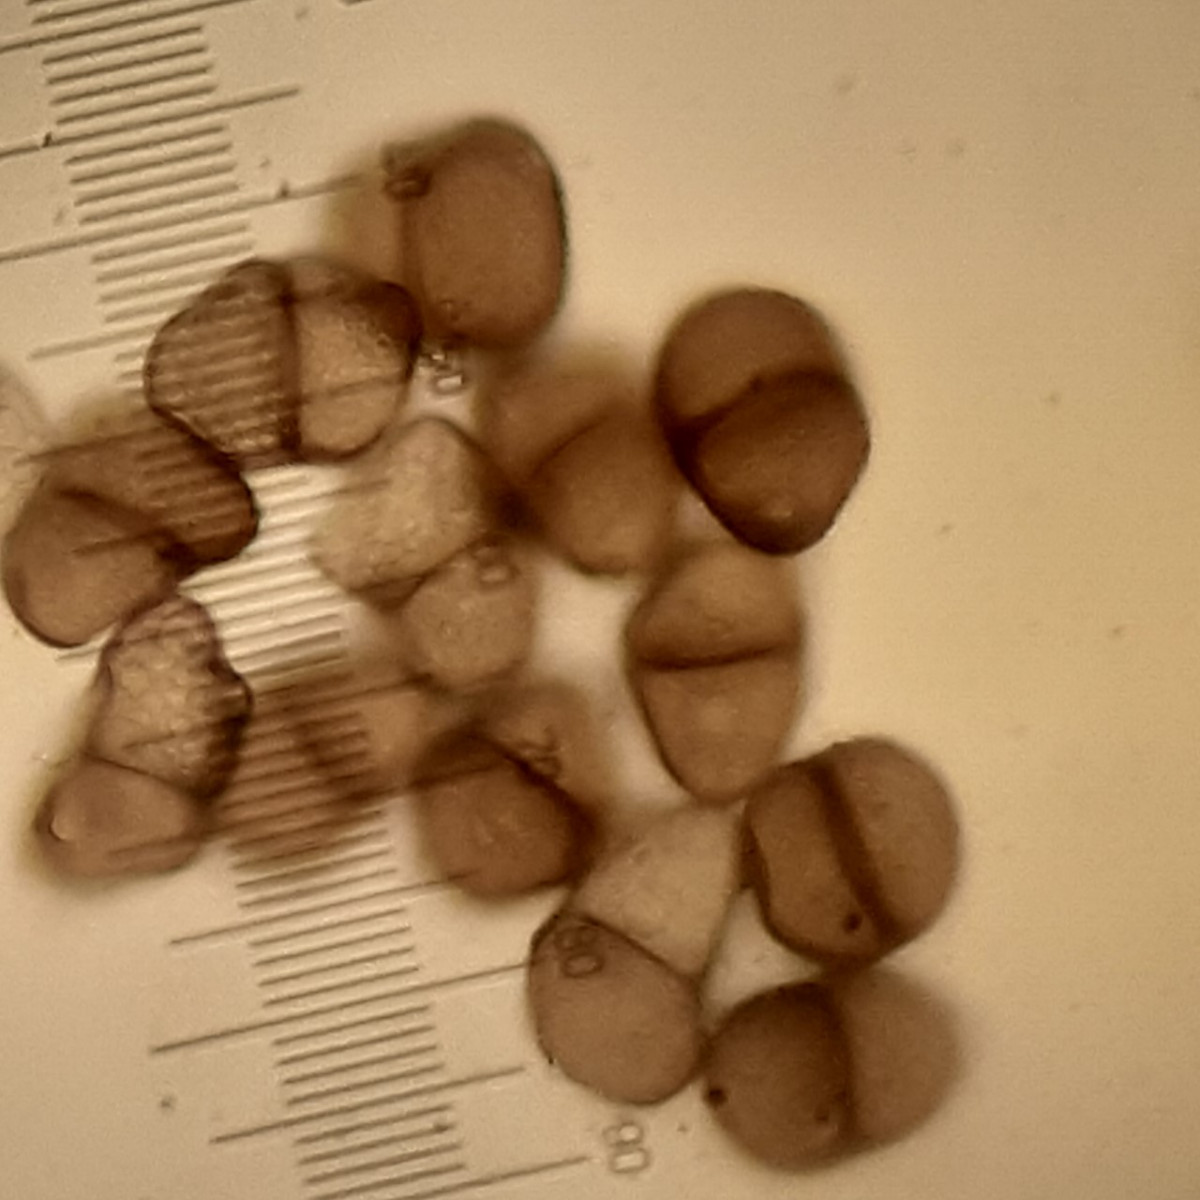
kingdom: Fungi
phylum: Basidiomycota
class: Pucciniomycetes
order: Pucciniales
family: Pucciniaceae
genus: Puccinia
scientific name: Puccinia hieracii
